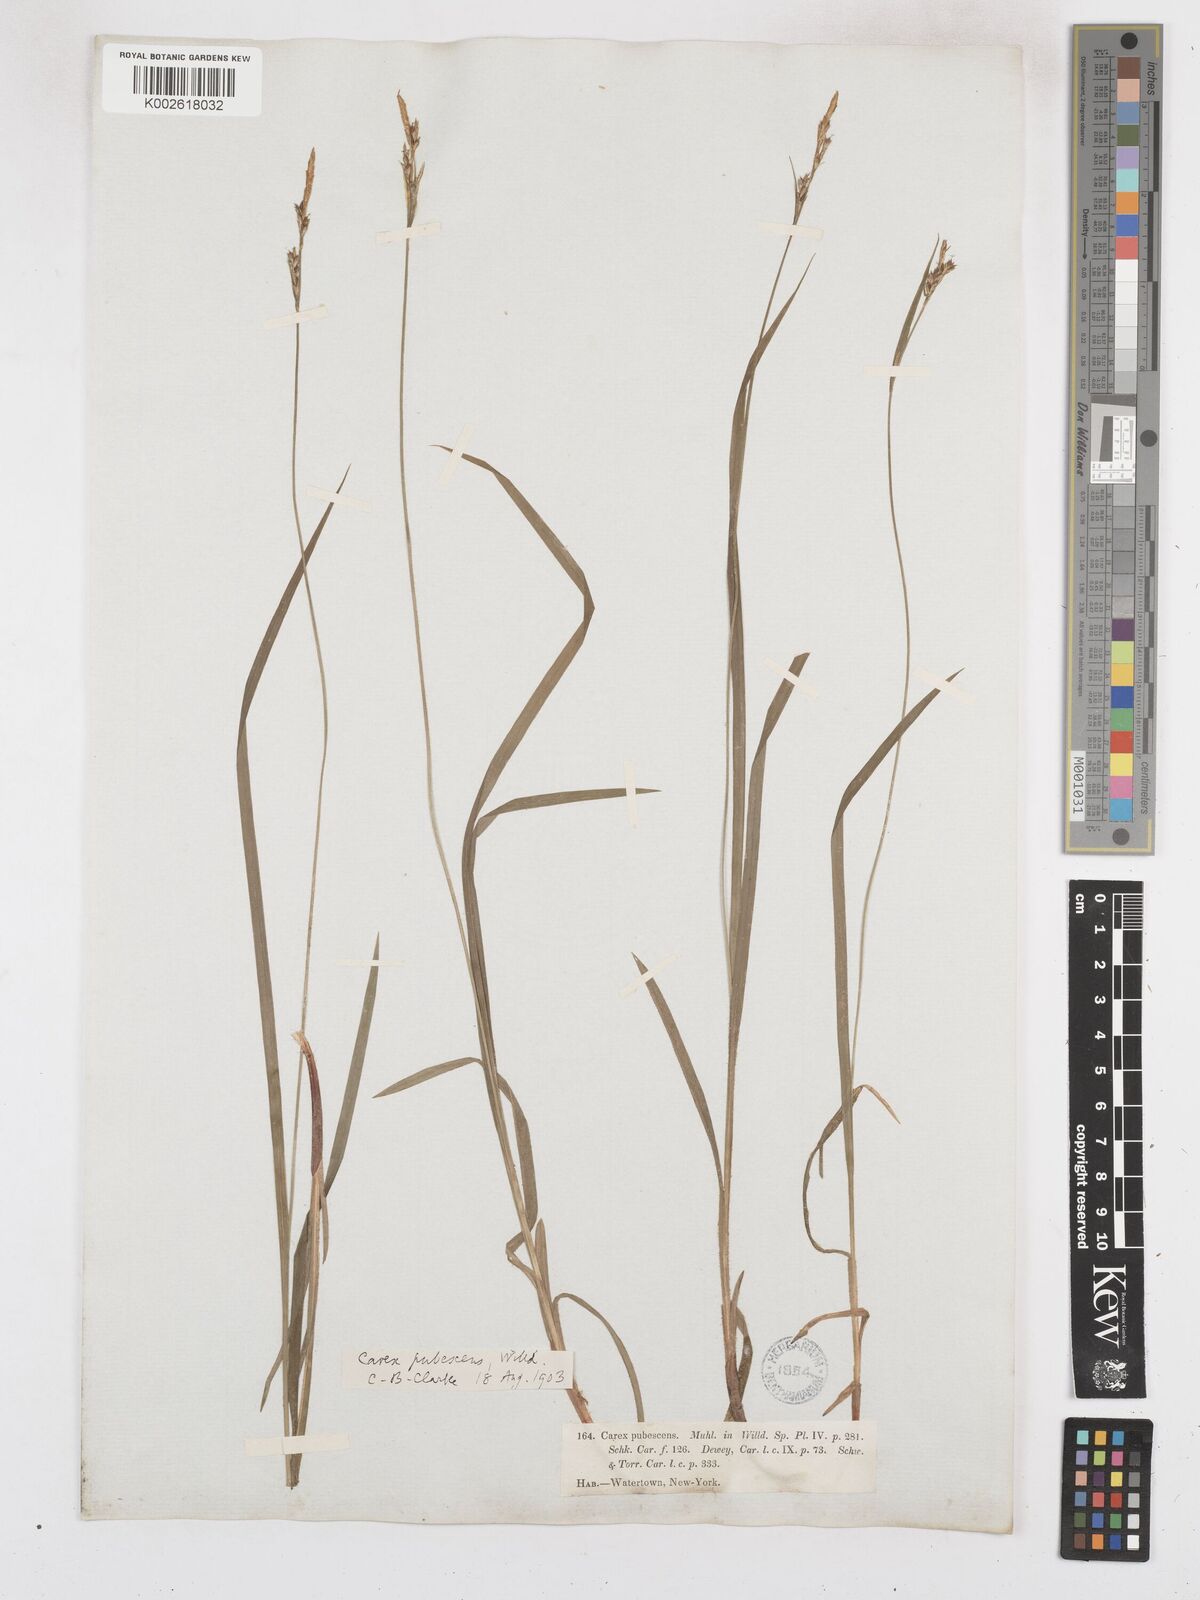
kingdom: Plantae
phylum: Tracheophyta
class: Liliopsida
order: Poales
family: Cyperaceae
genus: Carex
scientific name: Carex hirtifolia
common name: Hairy sedge
